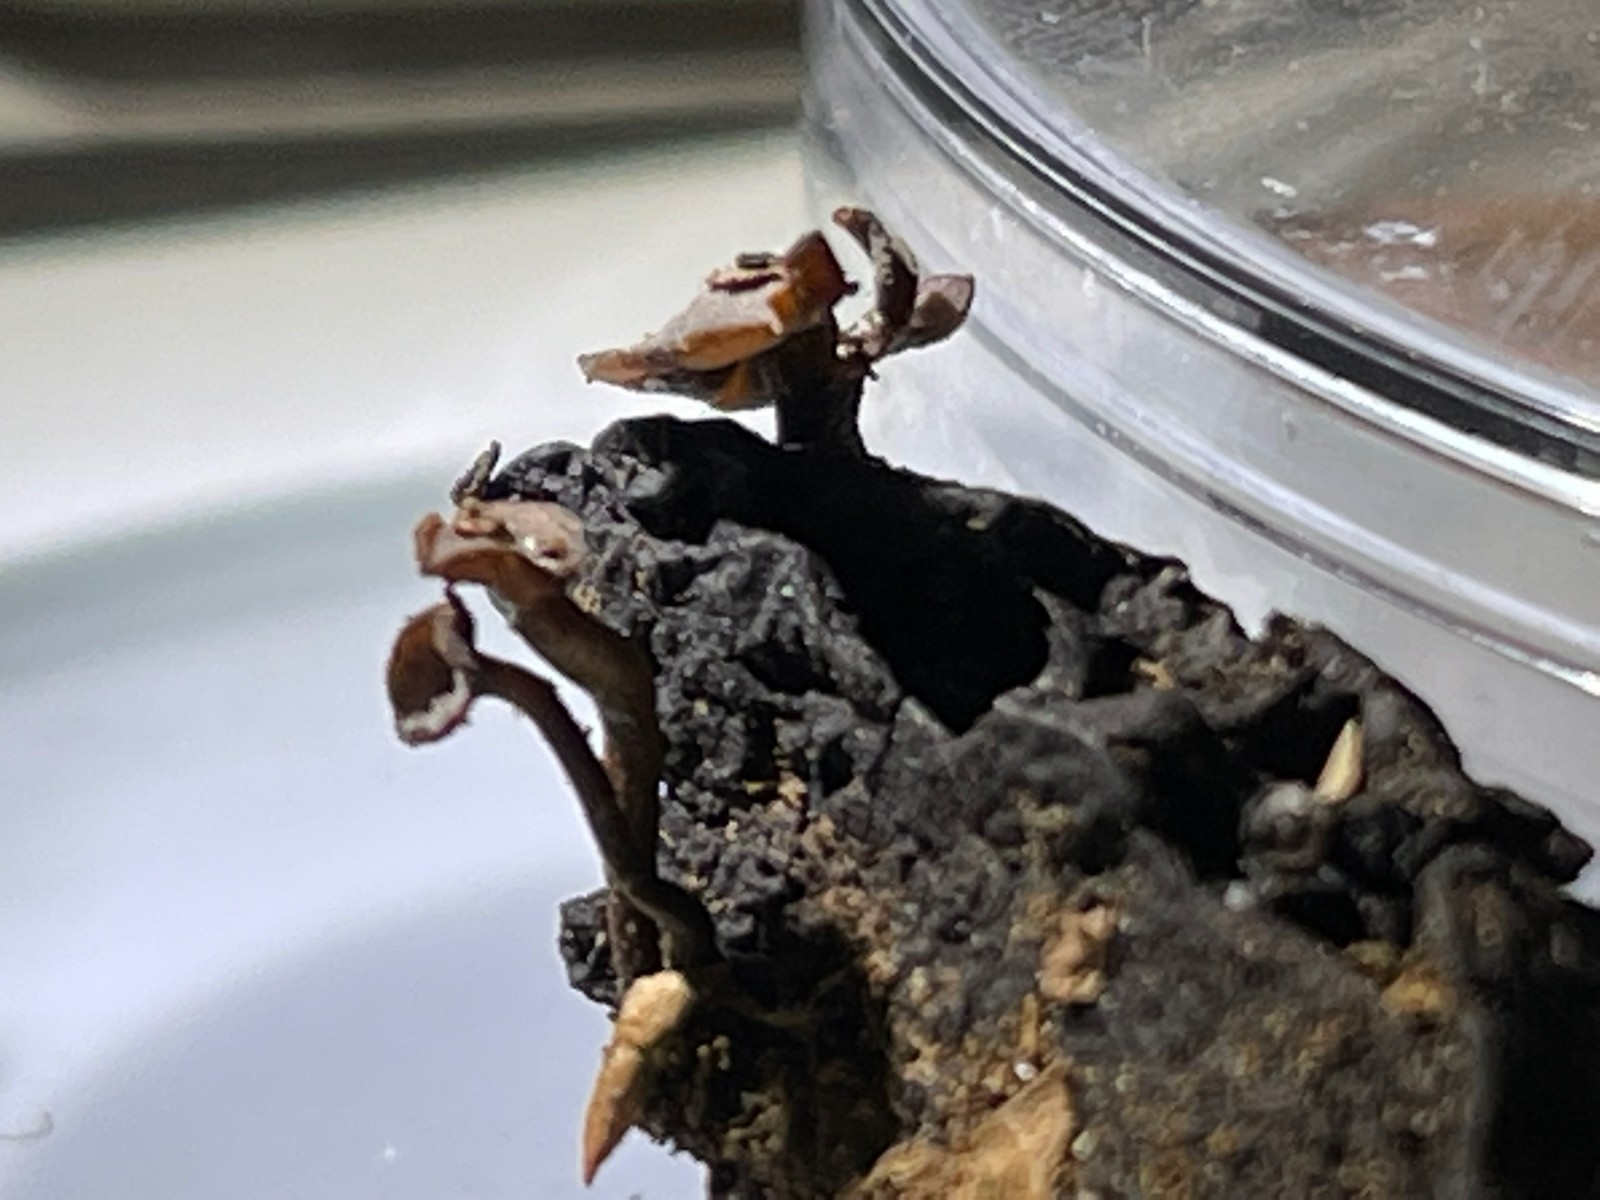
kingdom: Fungi
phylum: Ascomycota
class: Leotiomycetes
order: Helotiales
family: Sclerotiniaceae
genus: Ciboria
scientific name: Ciboria batschiana
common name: agern-knoldskive
